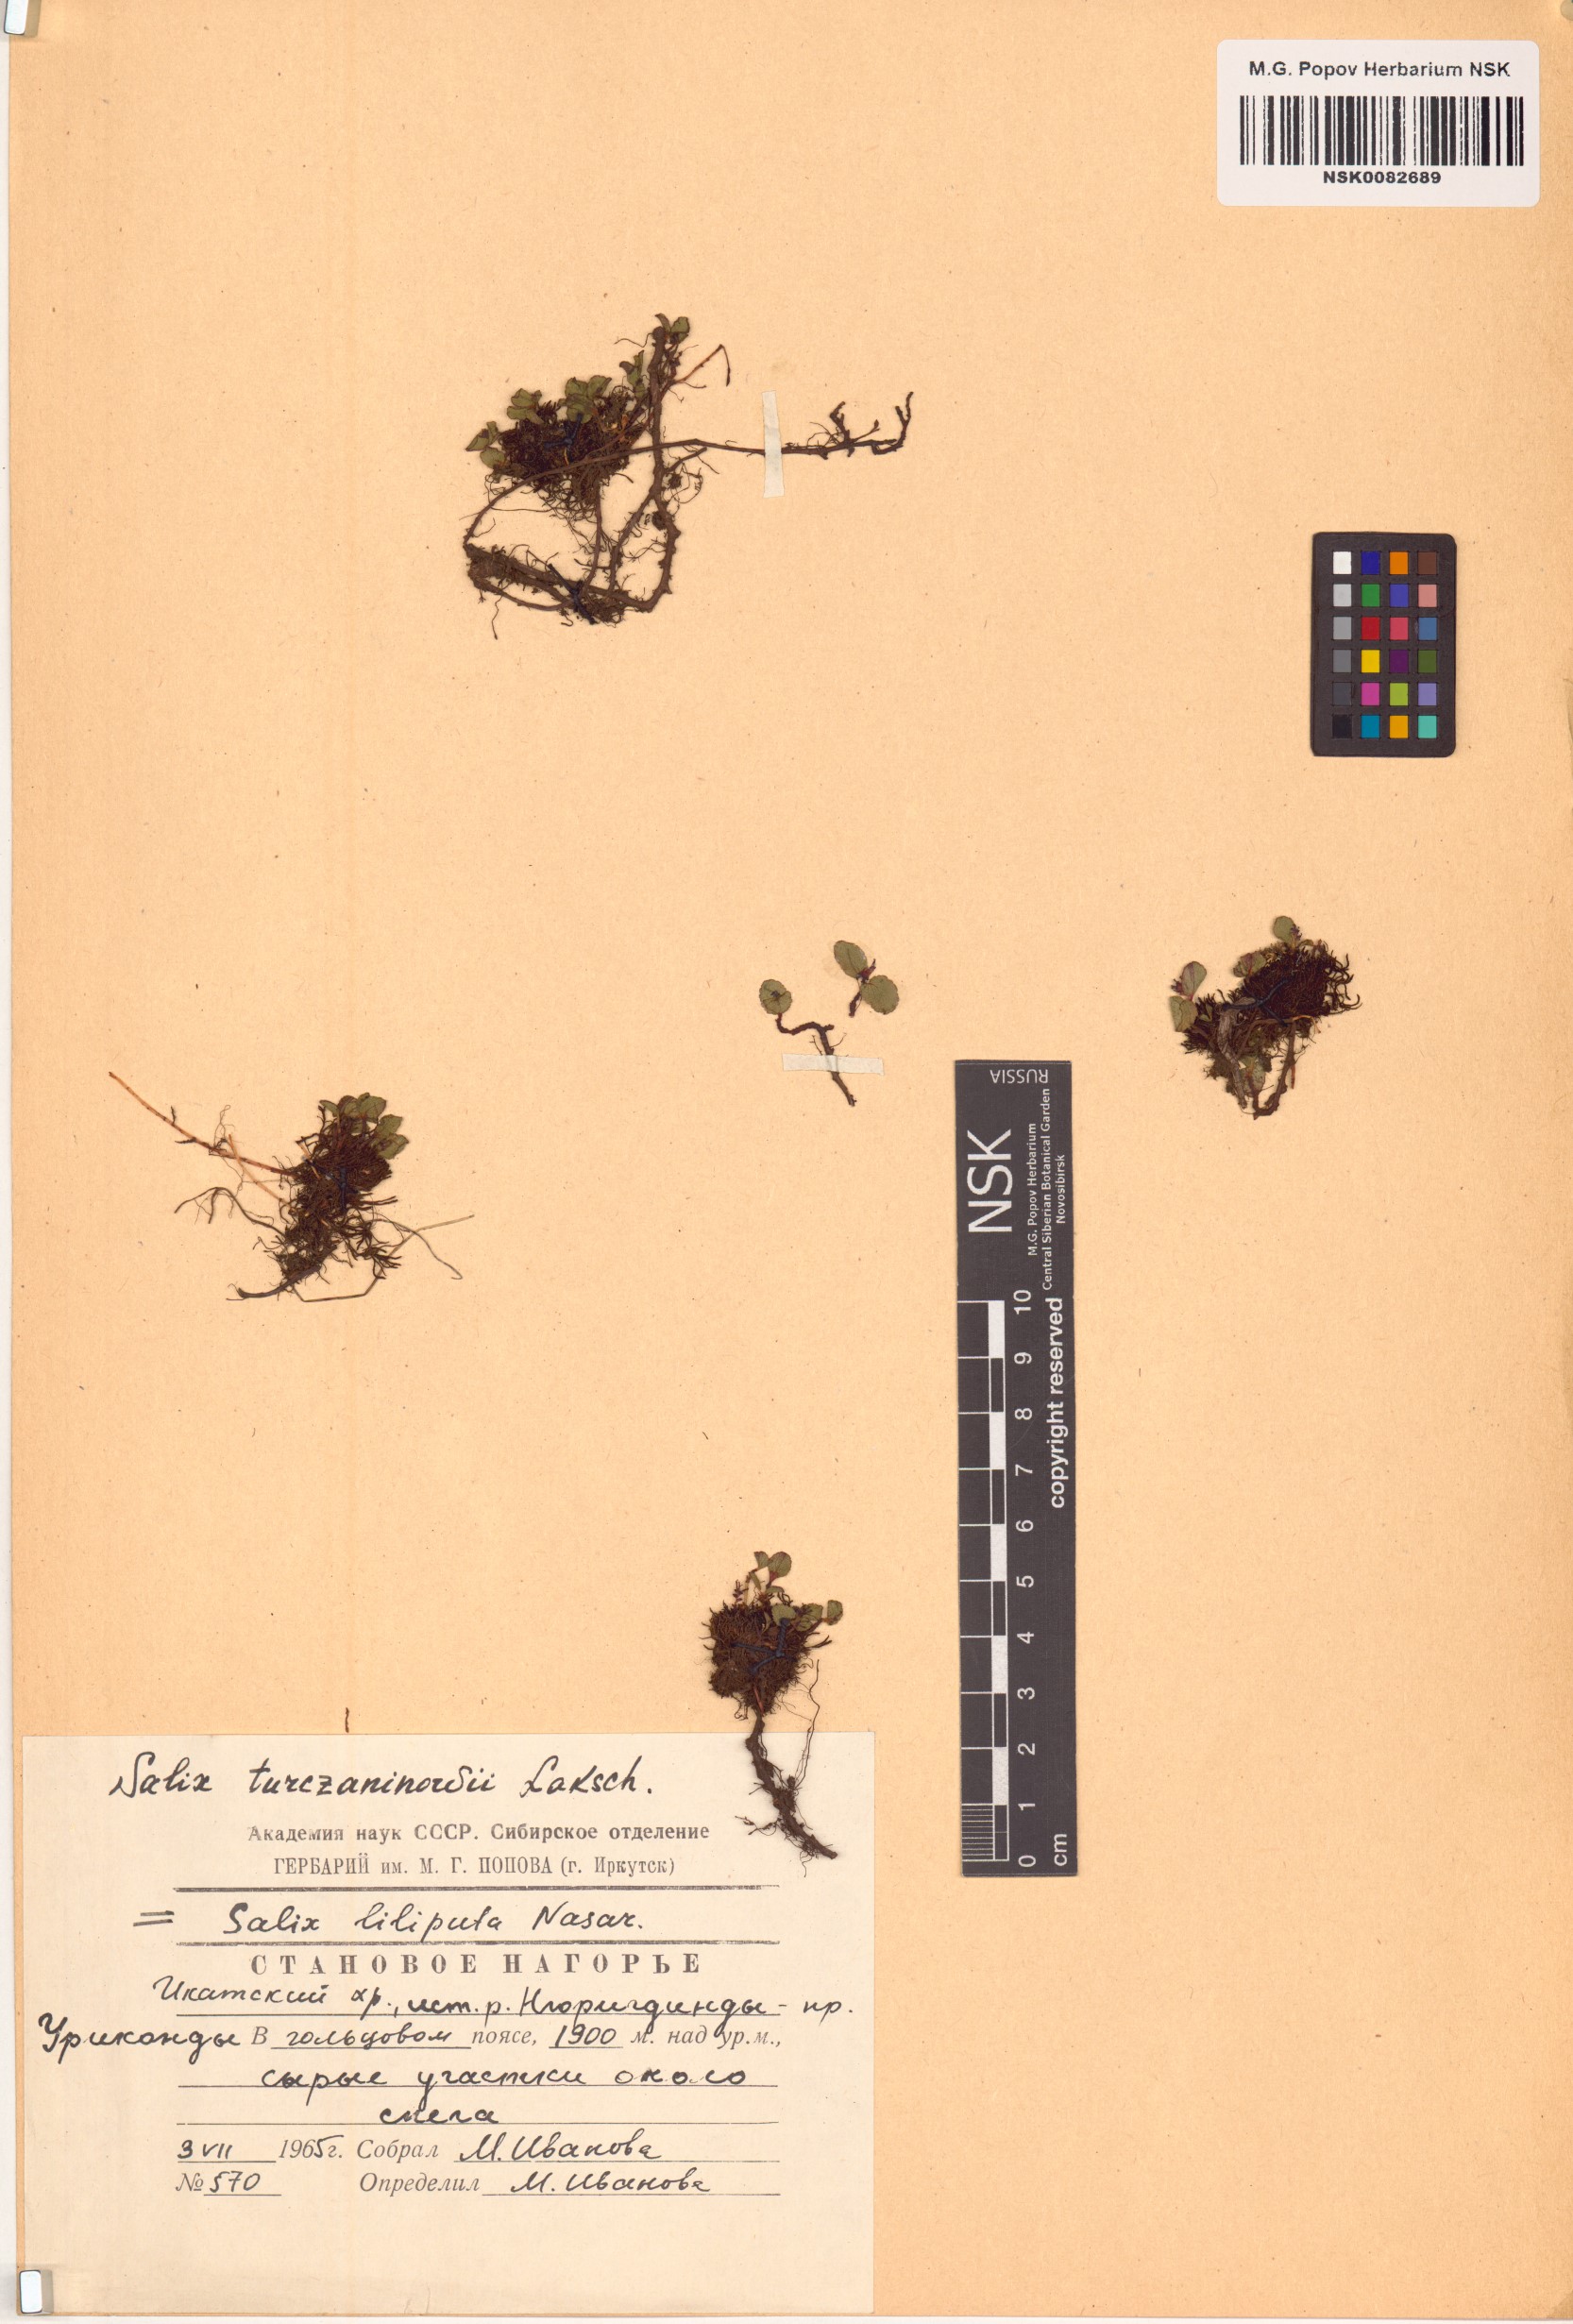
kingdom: Plantae
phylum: Tracheophyta
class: Magnoliopsida
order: Malpighiales
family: Salicaceae
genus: Salix
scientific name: Salix turczaninowii
